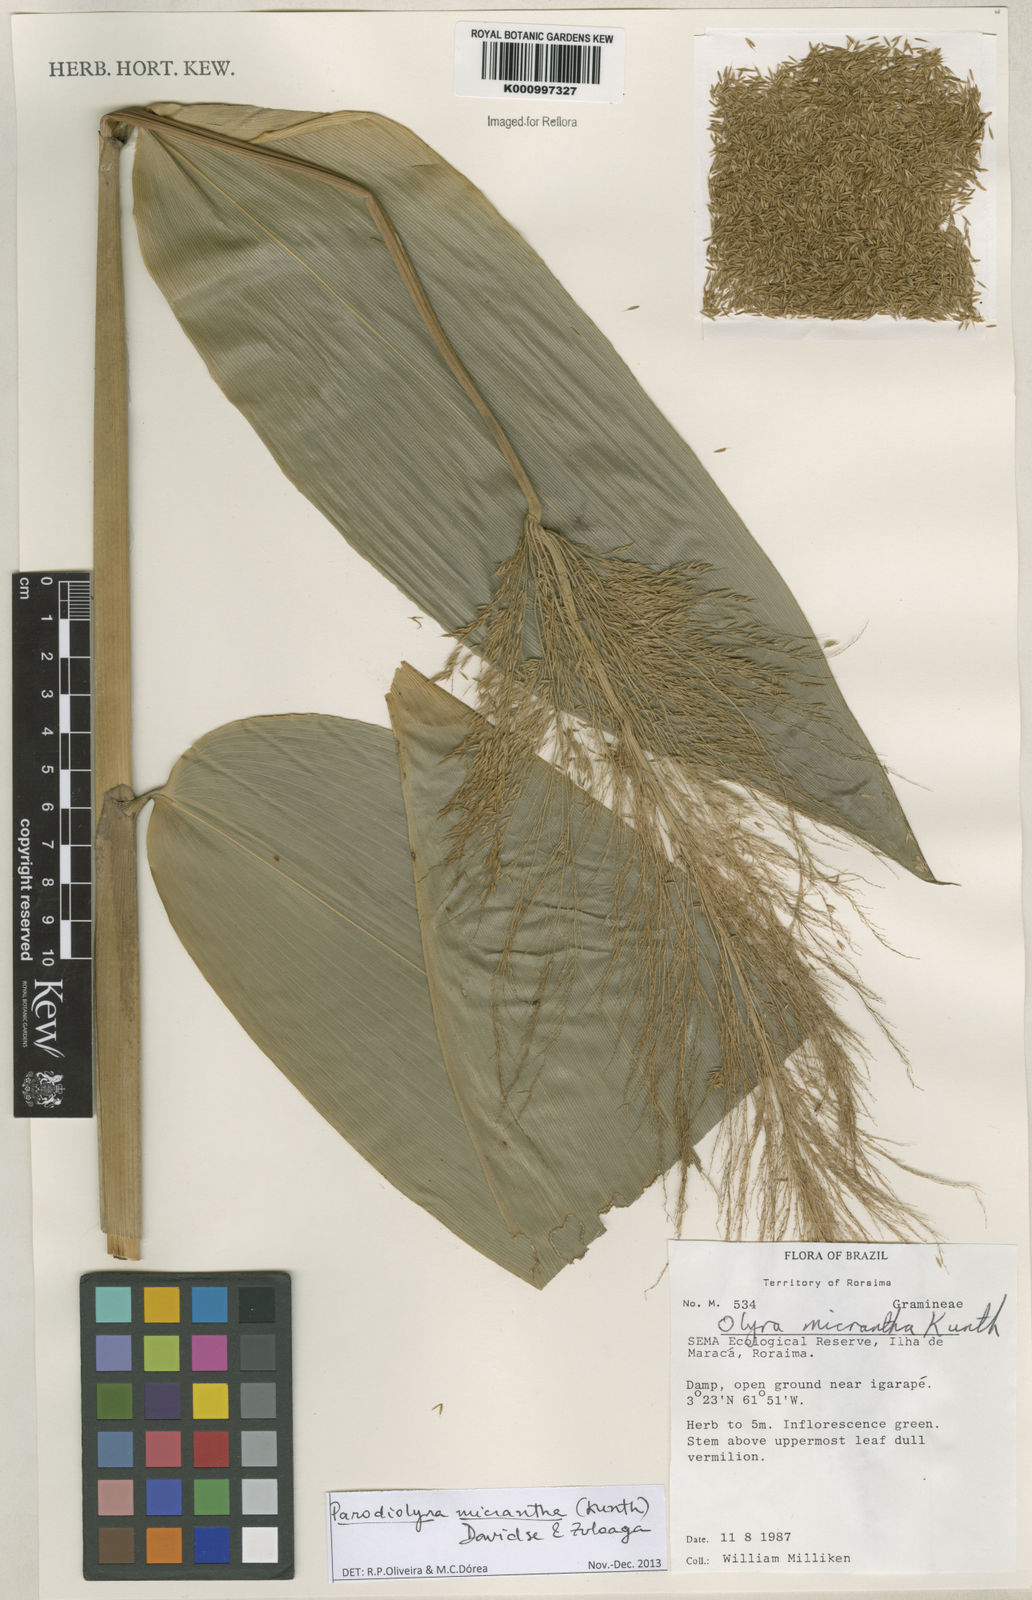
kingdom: Plantae
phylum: Tracheophyta
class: Liliopsida
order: Poales
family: Poaceae
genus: Taquara
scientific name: Taquara micrantha
